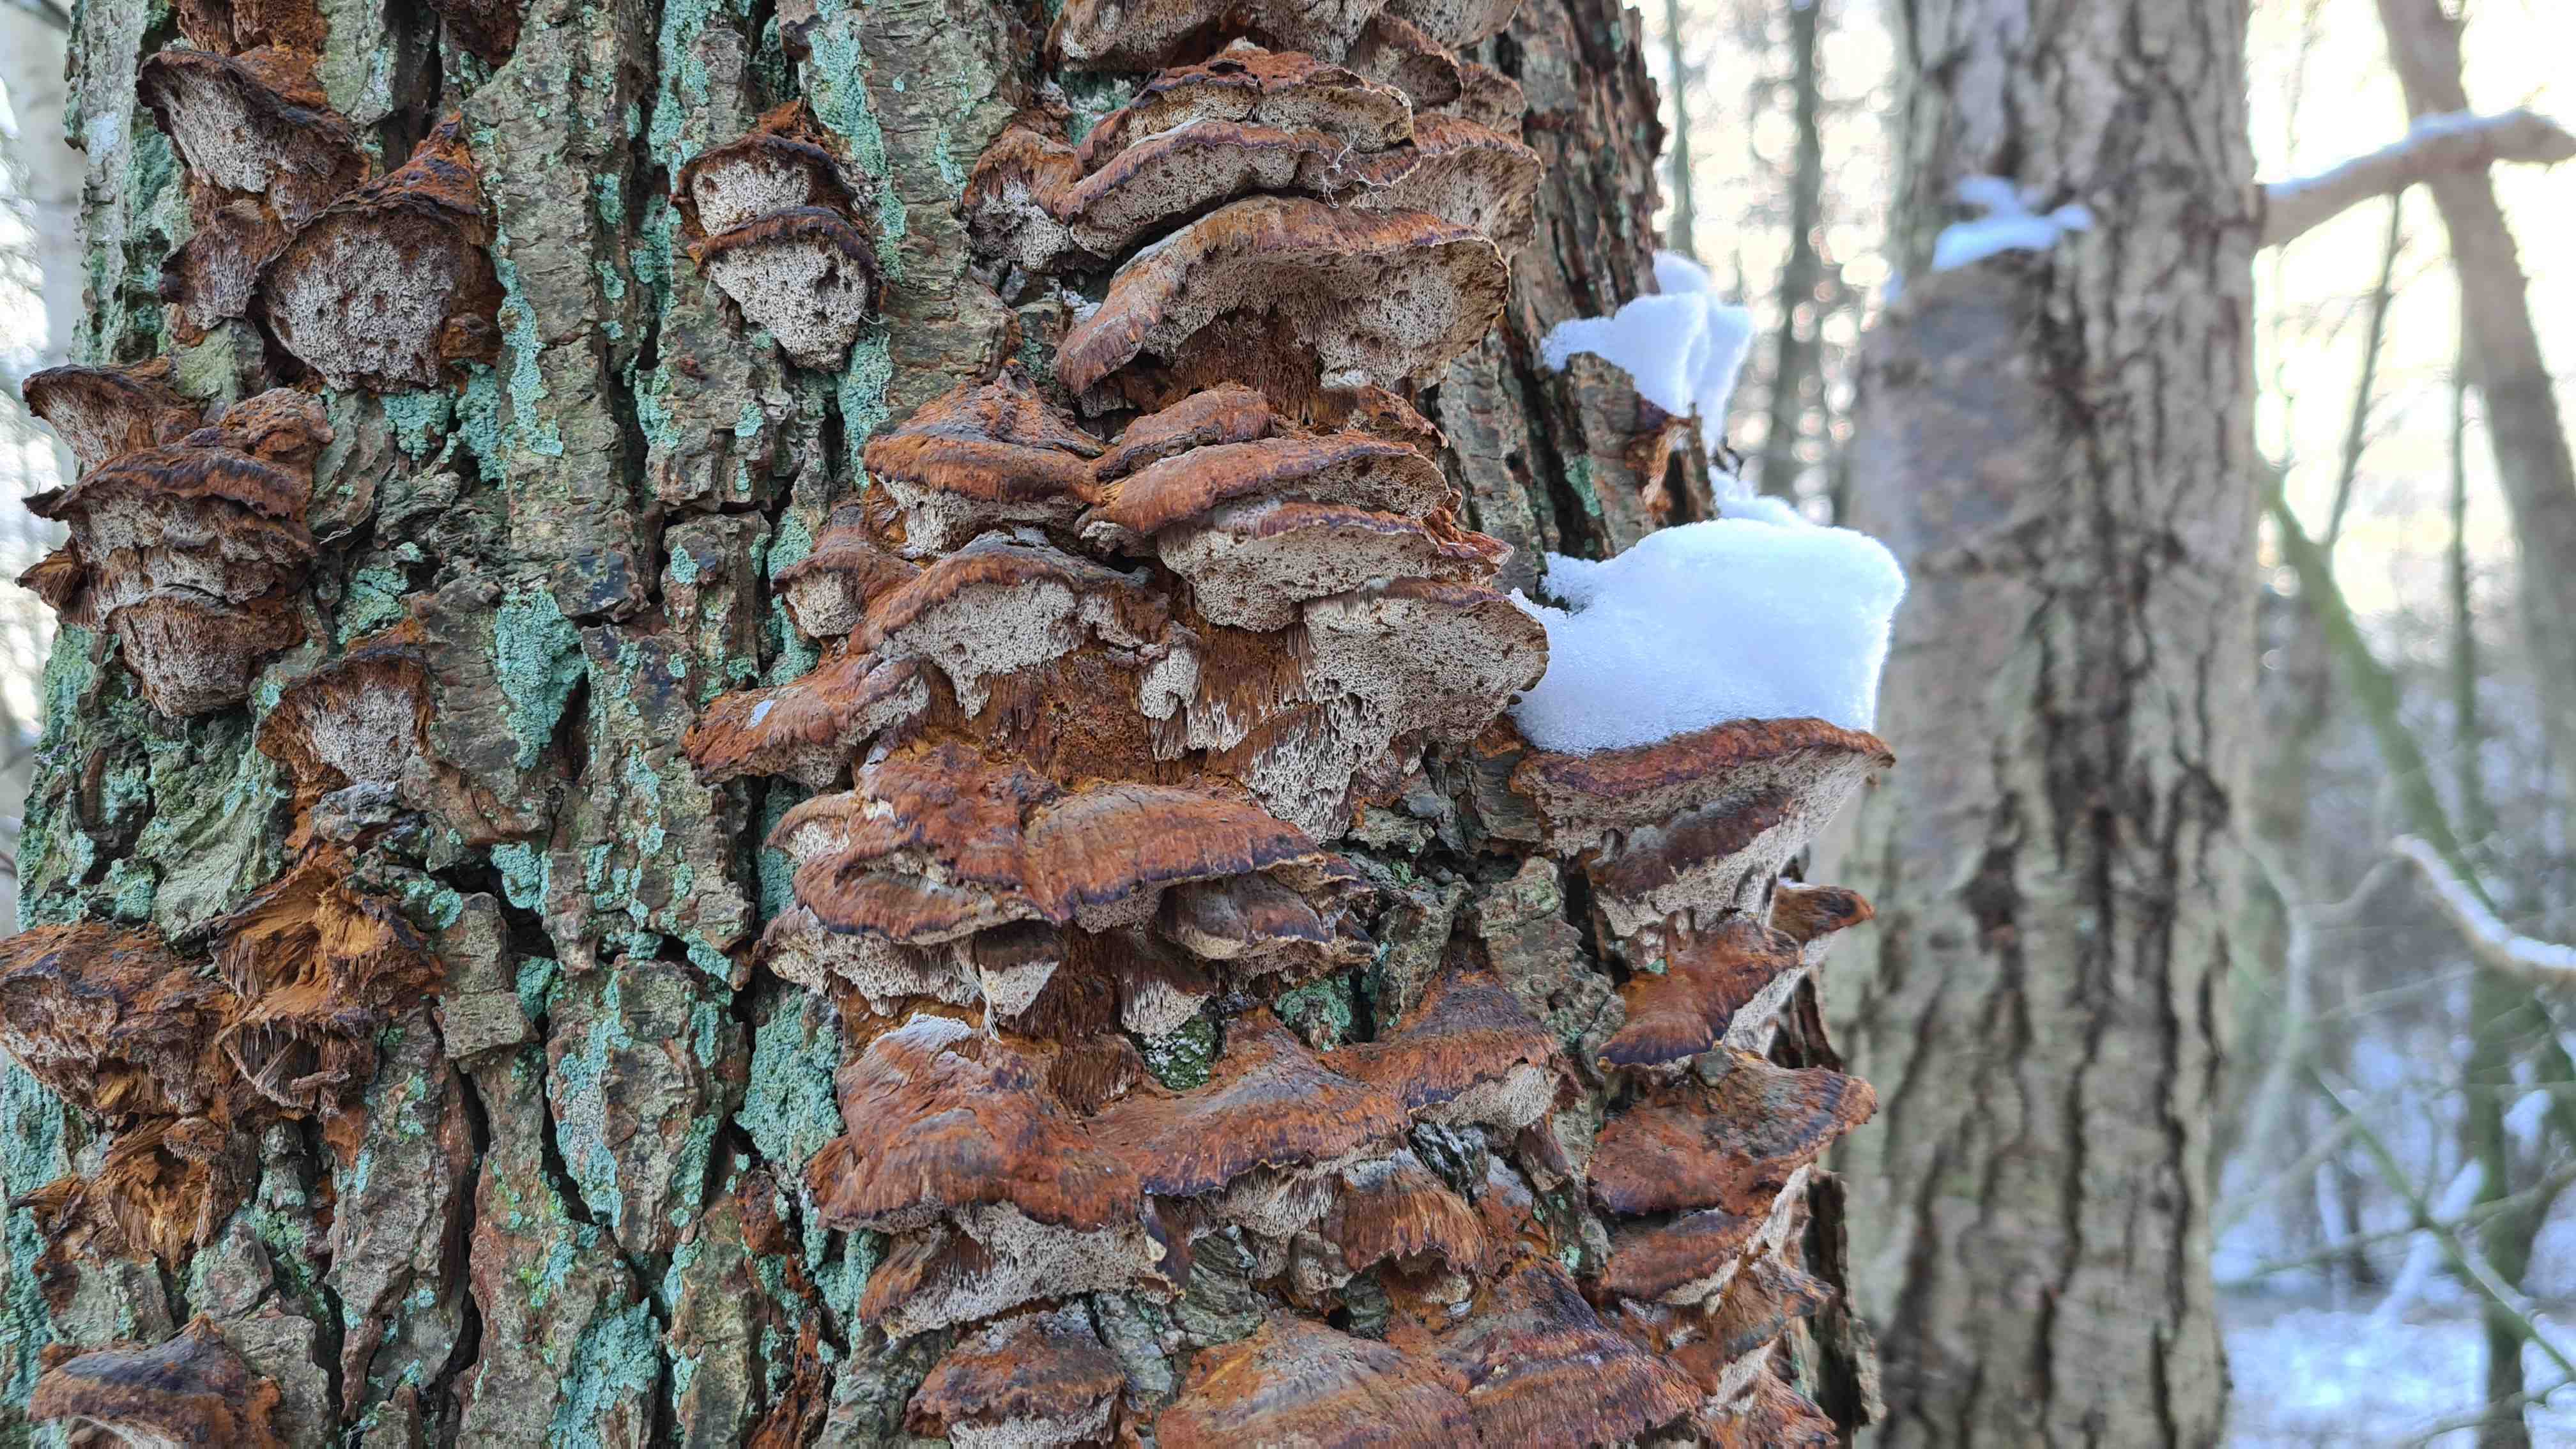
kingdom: Fungi
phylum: Basidiomycota
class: Agaricomycetes
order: Hymenochaetales
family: Hymenochaetaceae
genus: Xanthoporia
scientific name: Xanthoporia radiata
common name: elle-spejlporesvamp
